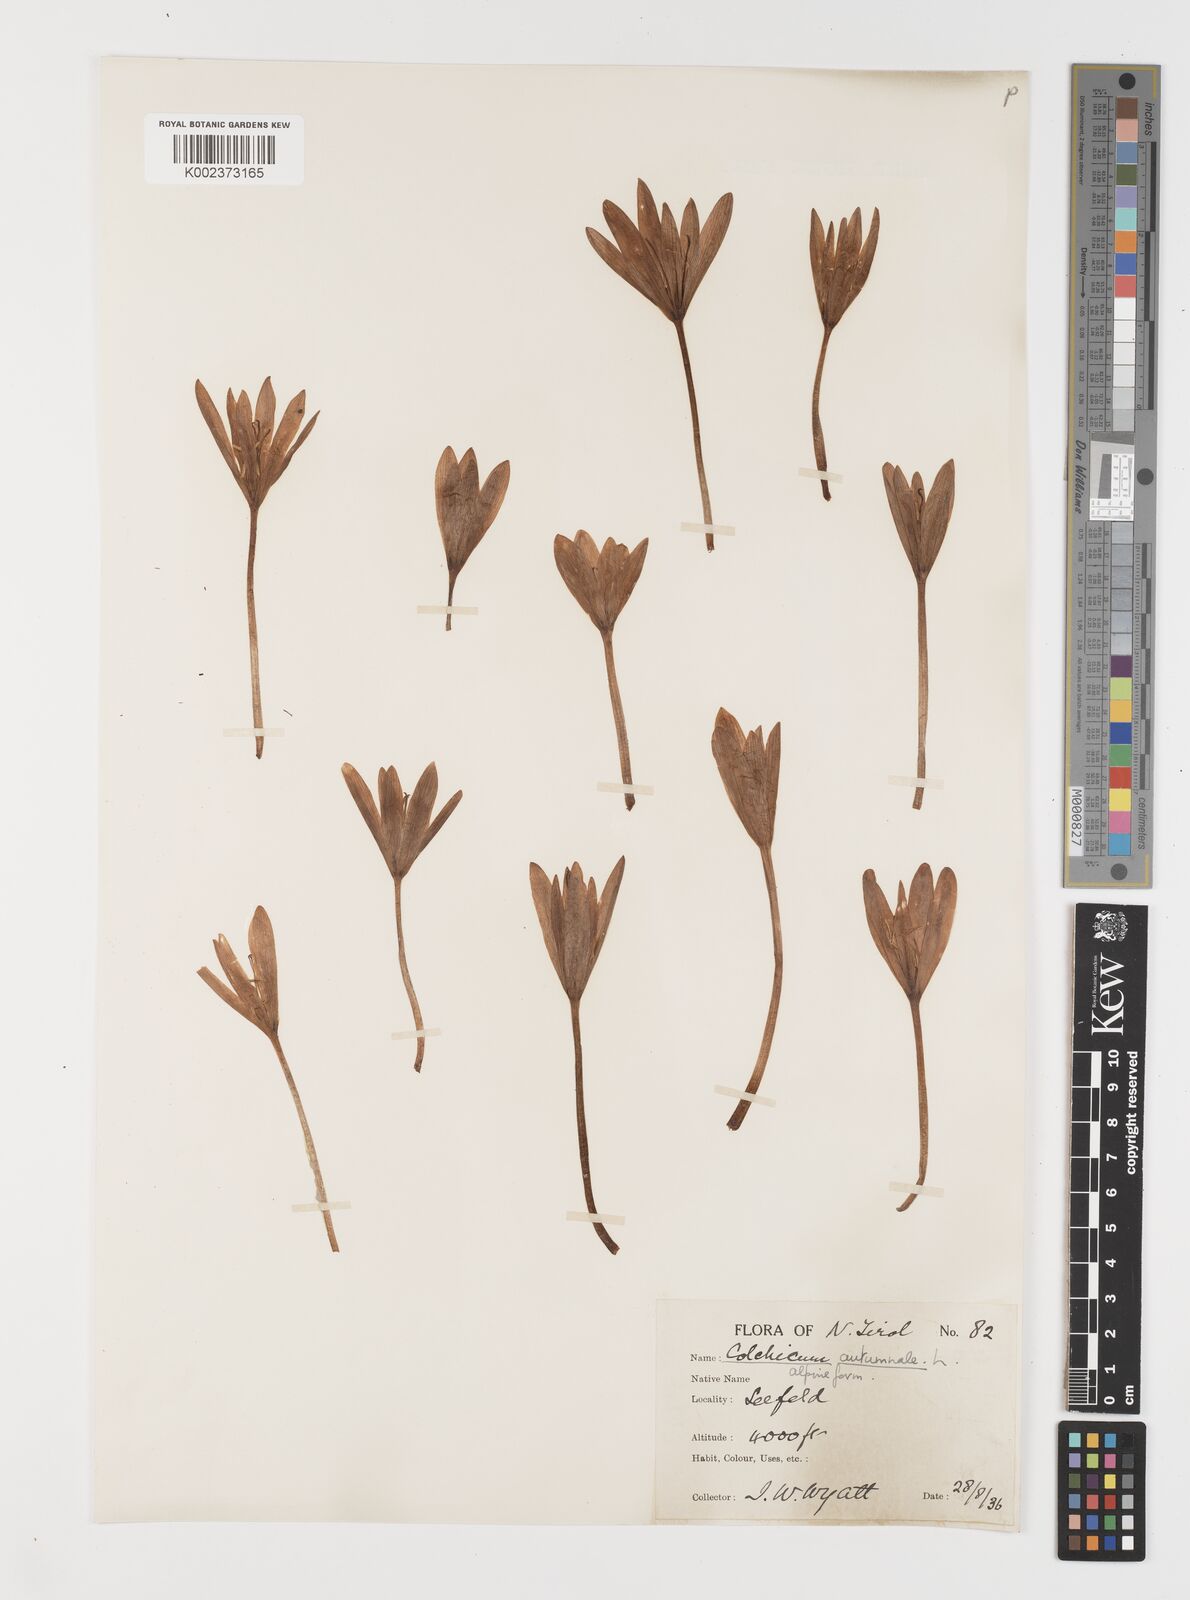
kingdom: Plantae
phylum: Tracheophyta
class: Liliopsida
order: Liliales
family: Colchicaceae
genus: Colchicum
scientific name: Colchicum autumnale
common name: Autumn crocus
